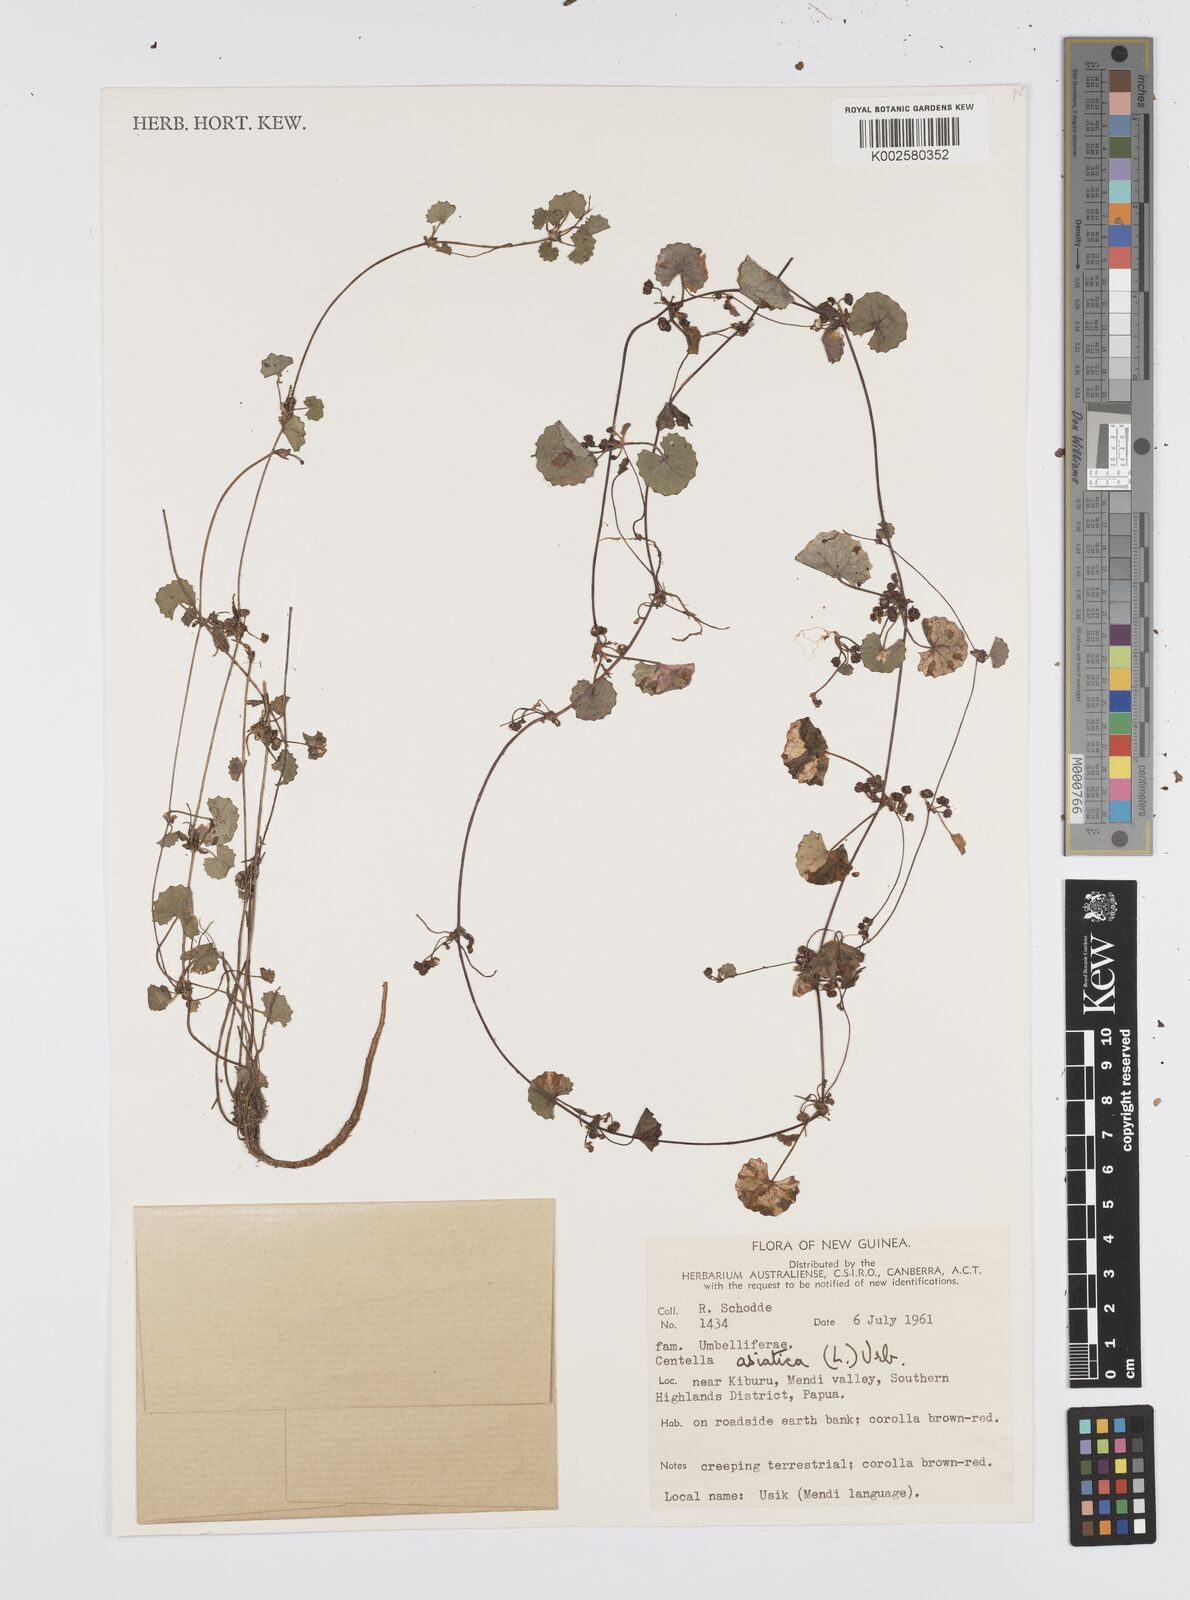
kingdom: Plantae
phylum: Tracheophyta
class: Magnoliopsida
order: Apiales
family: Apiaceae
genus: Centella
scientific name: Centella asiatica
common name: Spadeleaf
